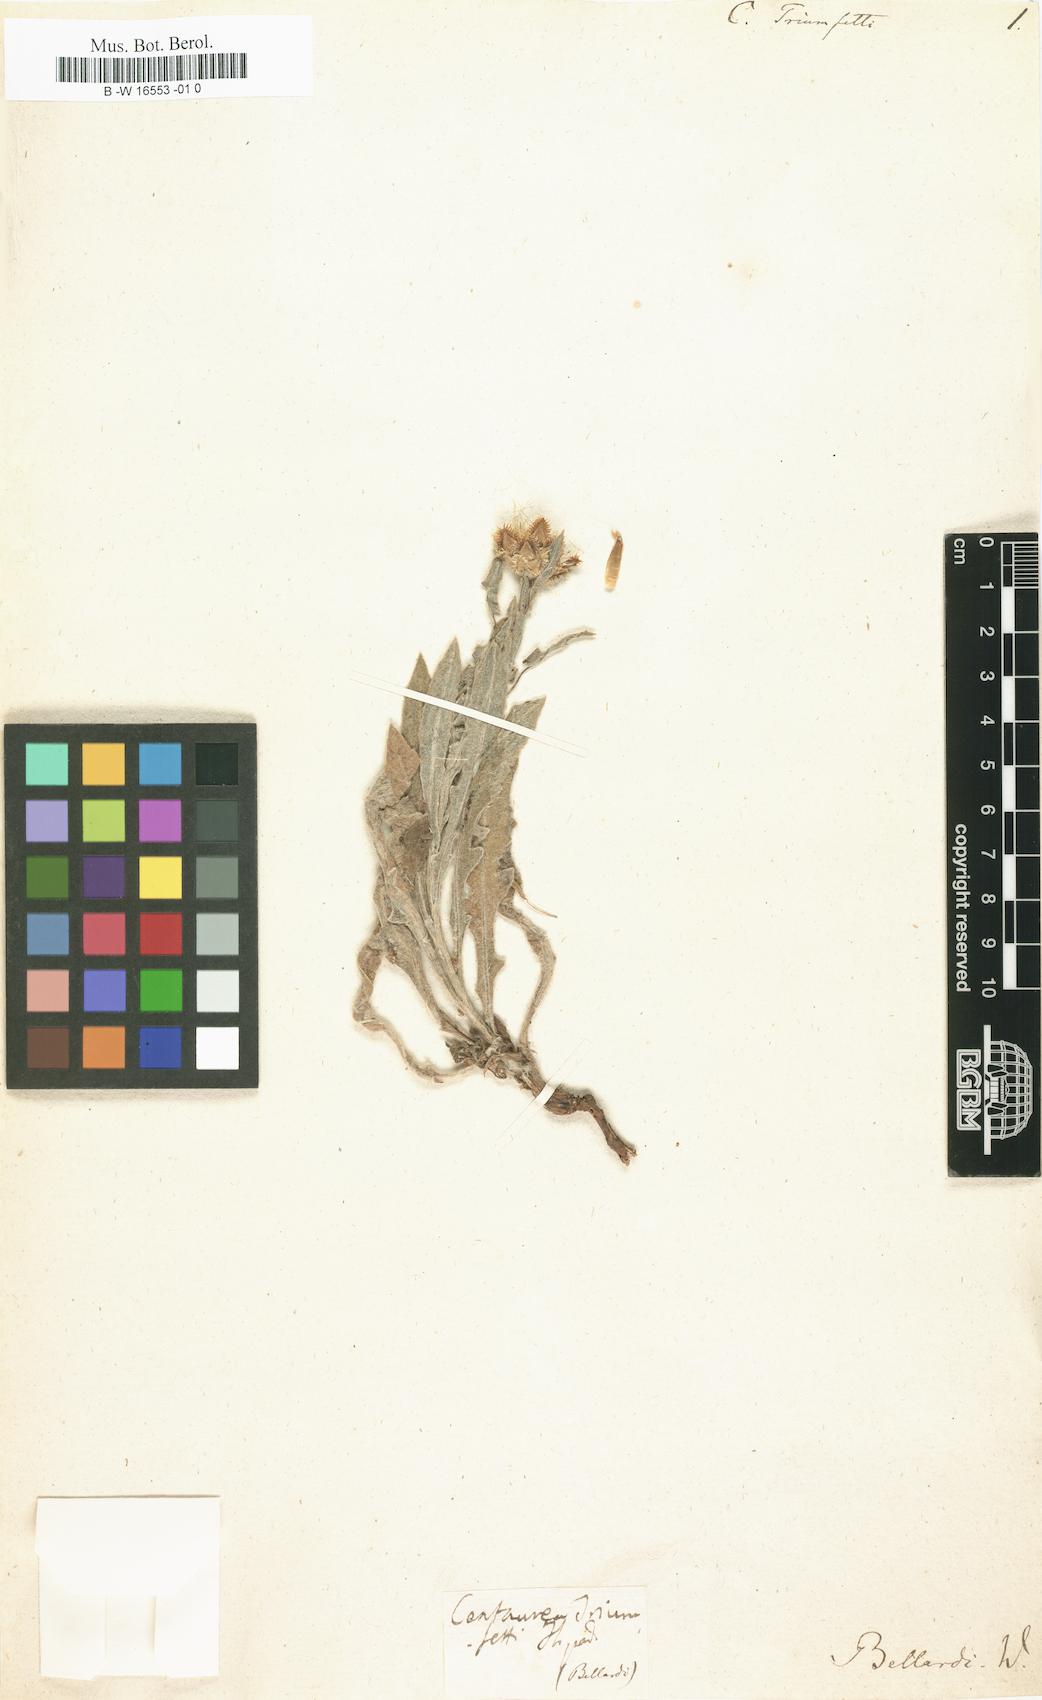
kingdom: Plantae
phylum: Tracheophyta
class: Magnoliopsida
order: Asterales
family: Asteraceae
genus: Centaurea
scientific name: Centaurea triumfettii
